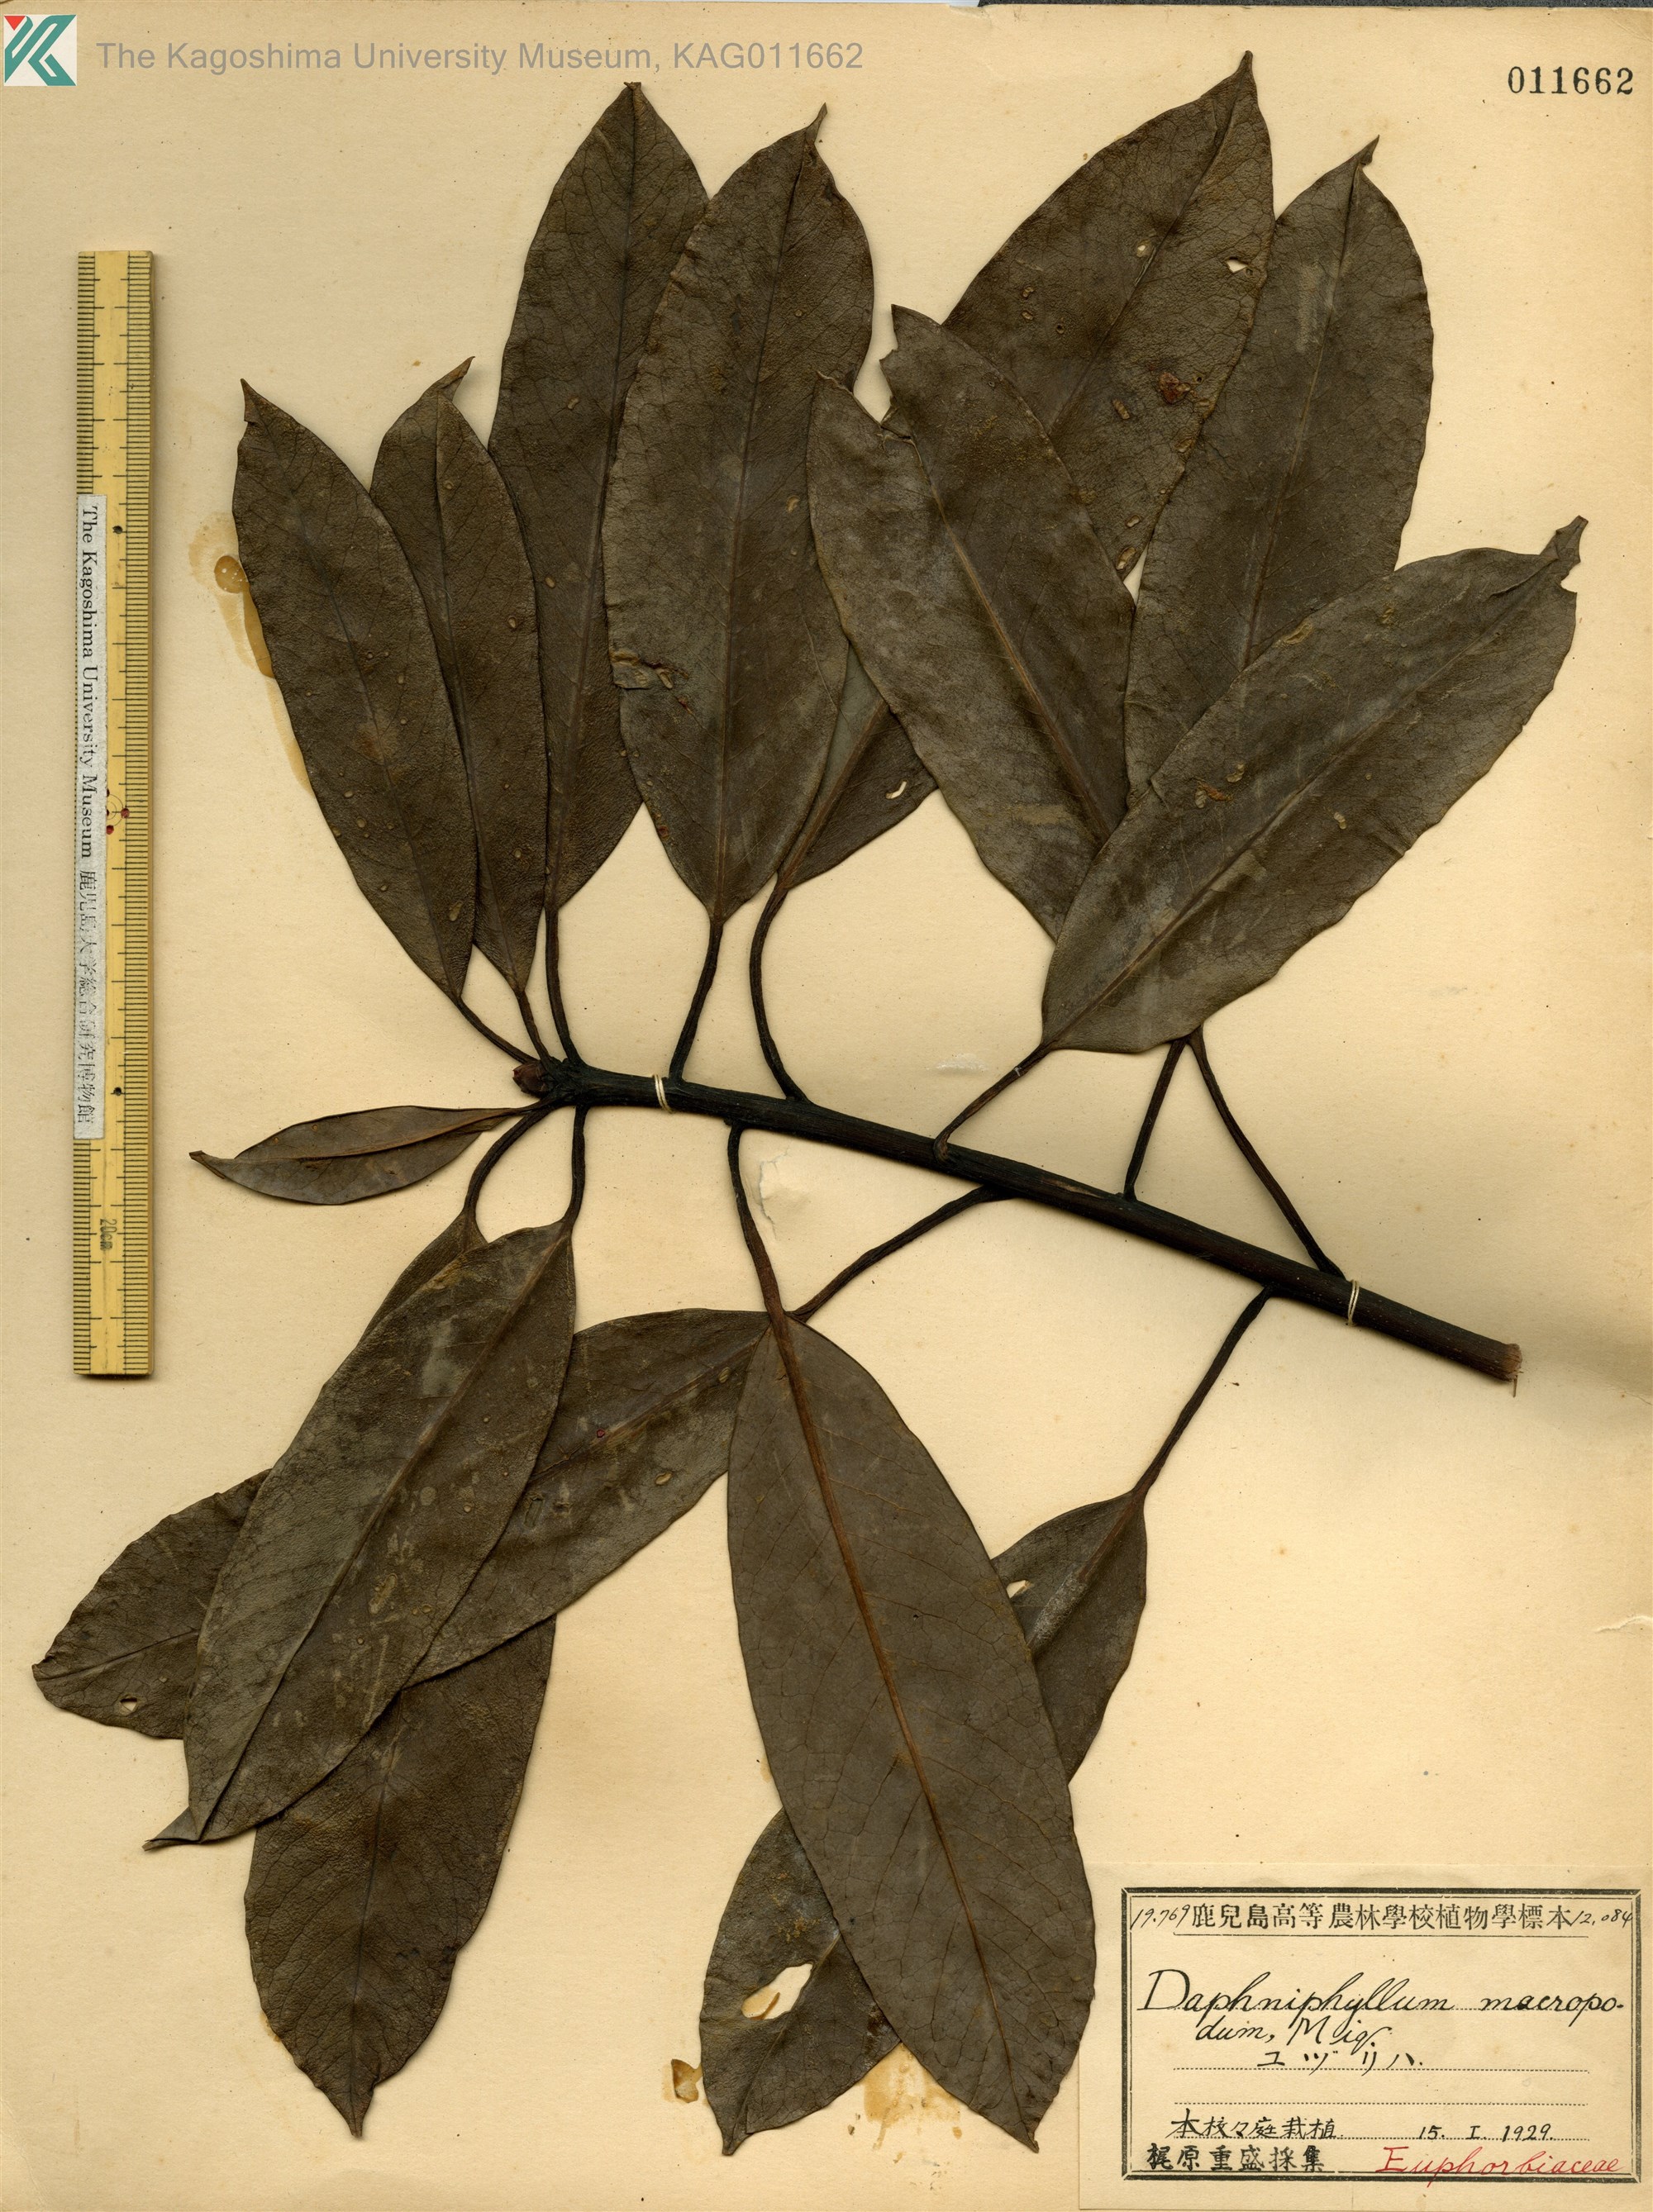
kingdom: Plantae
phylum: Tracheophyta
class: Magnoliopsida
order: Saxifragales
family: Daphniphyllaceae
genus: Daphniphyllum
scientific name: Daphniphyllum macropodum
